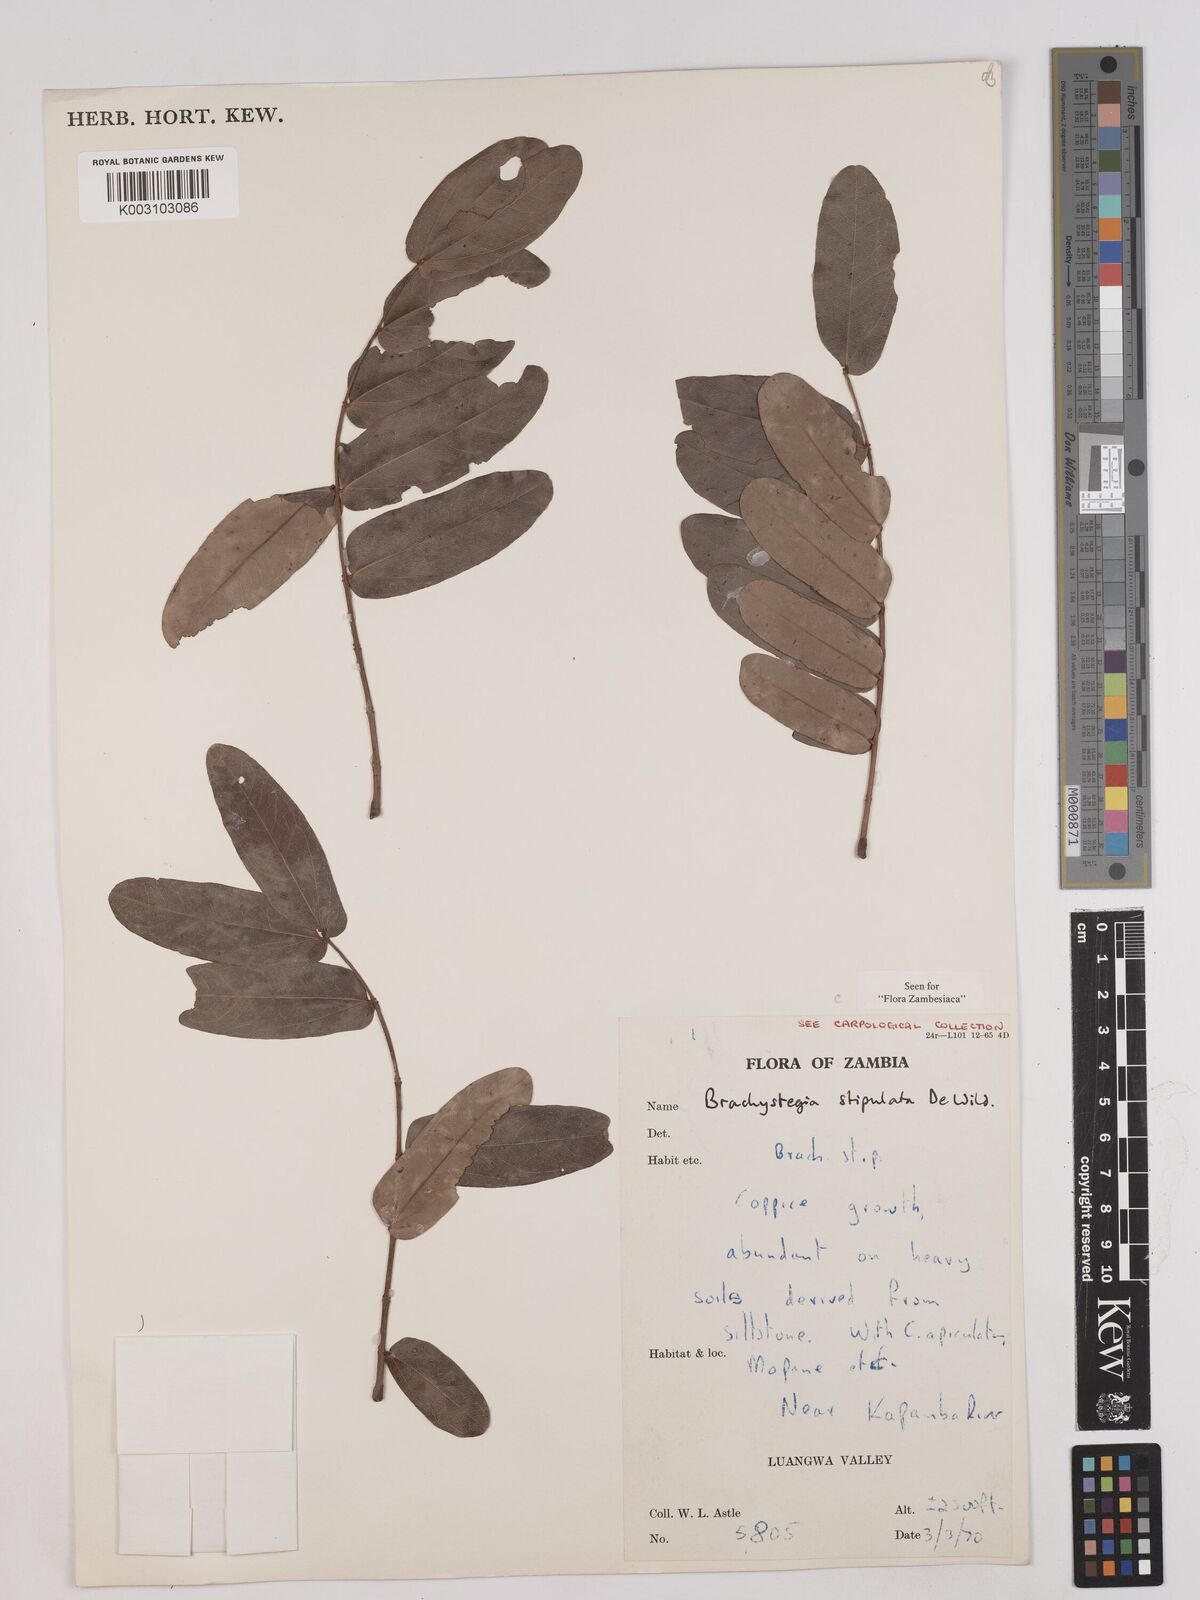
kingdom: Plantae
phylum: Tracheophyta
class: Magnoliopsida
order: Fabales
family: Fabaceae
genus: Brachystegia
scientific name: Brachystegia stipulata
